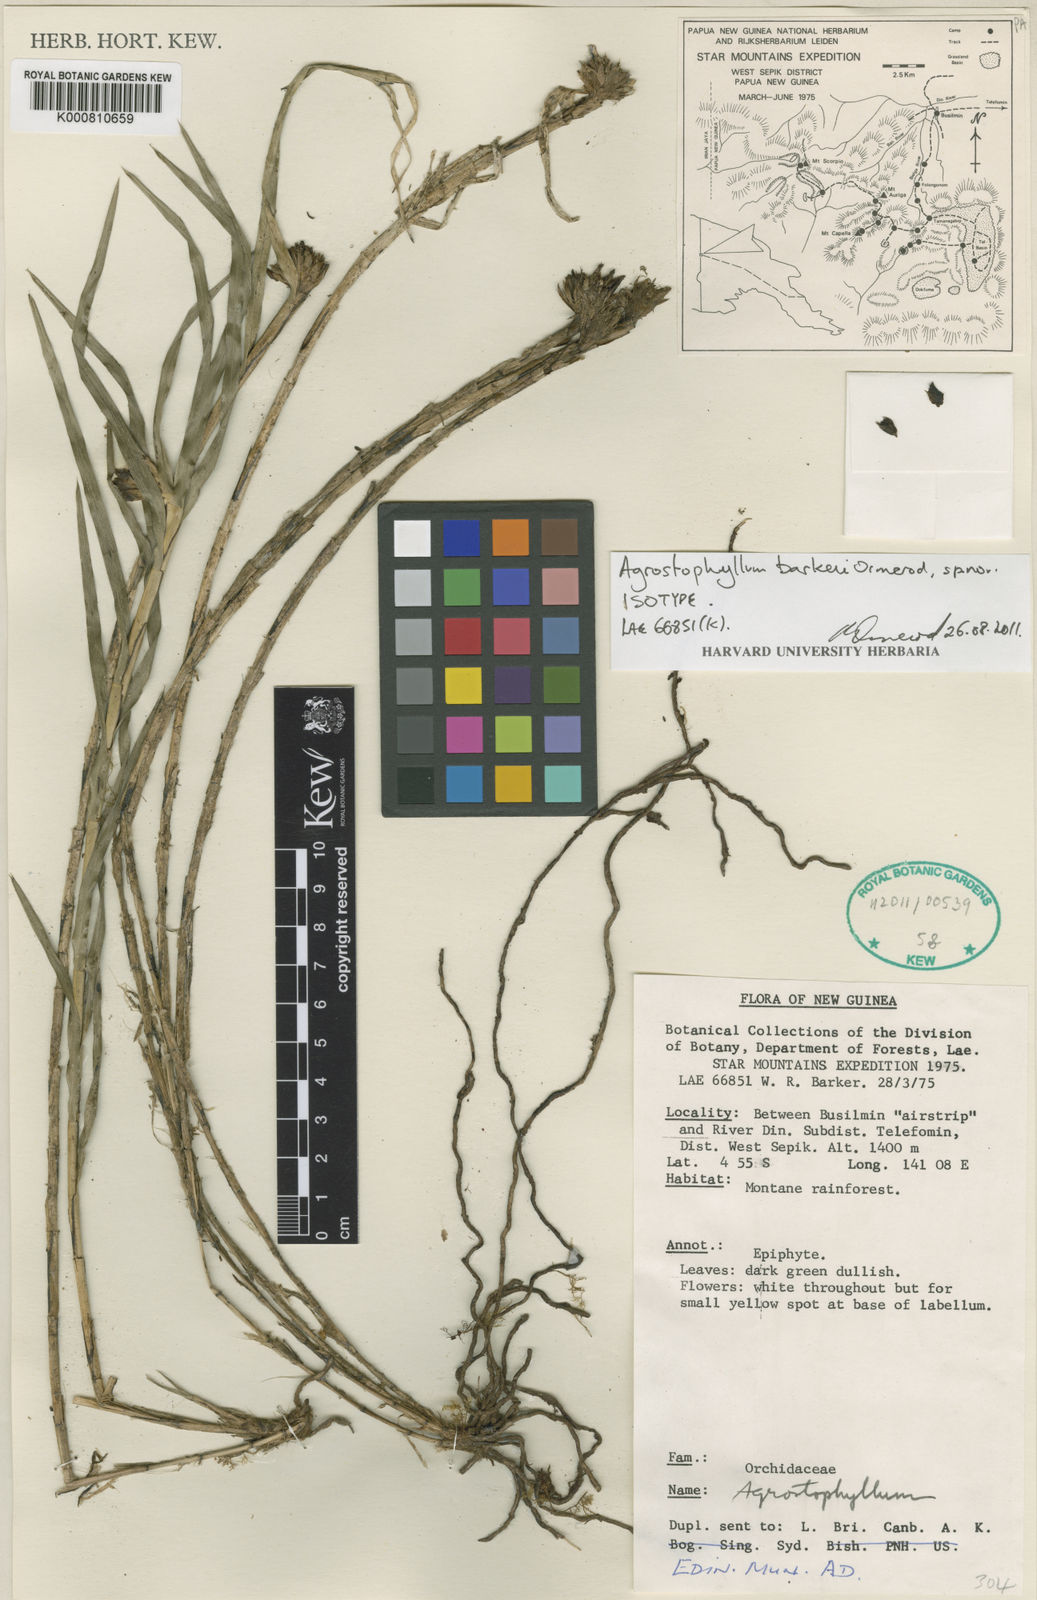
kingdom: Plantae
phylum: Tracheophyta
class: Liliopsida
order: Asparagales
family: Orchidaceae
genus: Agrostophyllum
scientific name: Agrostophyllum barkeri
